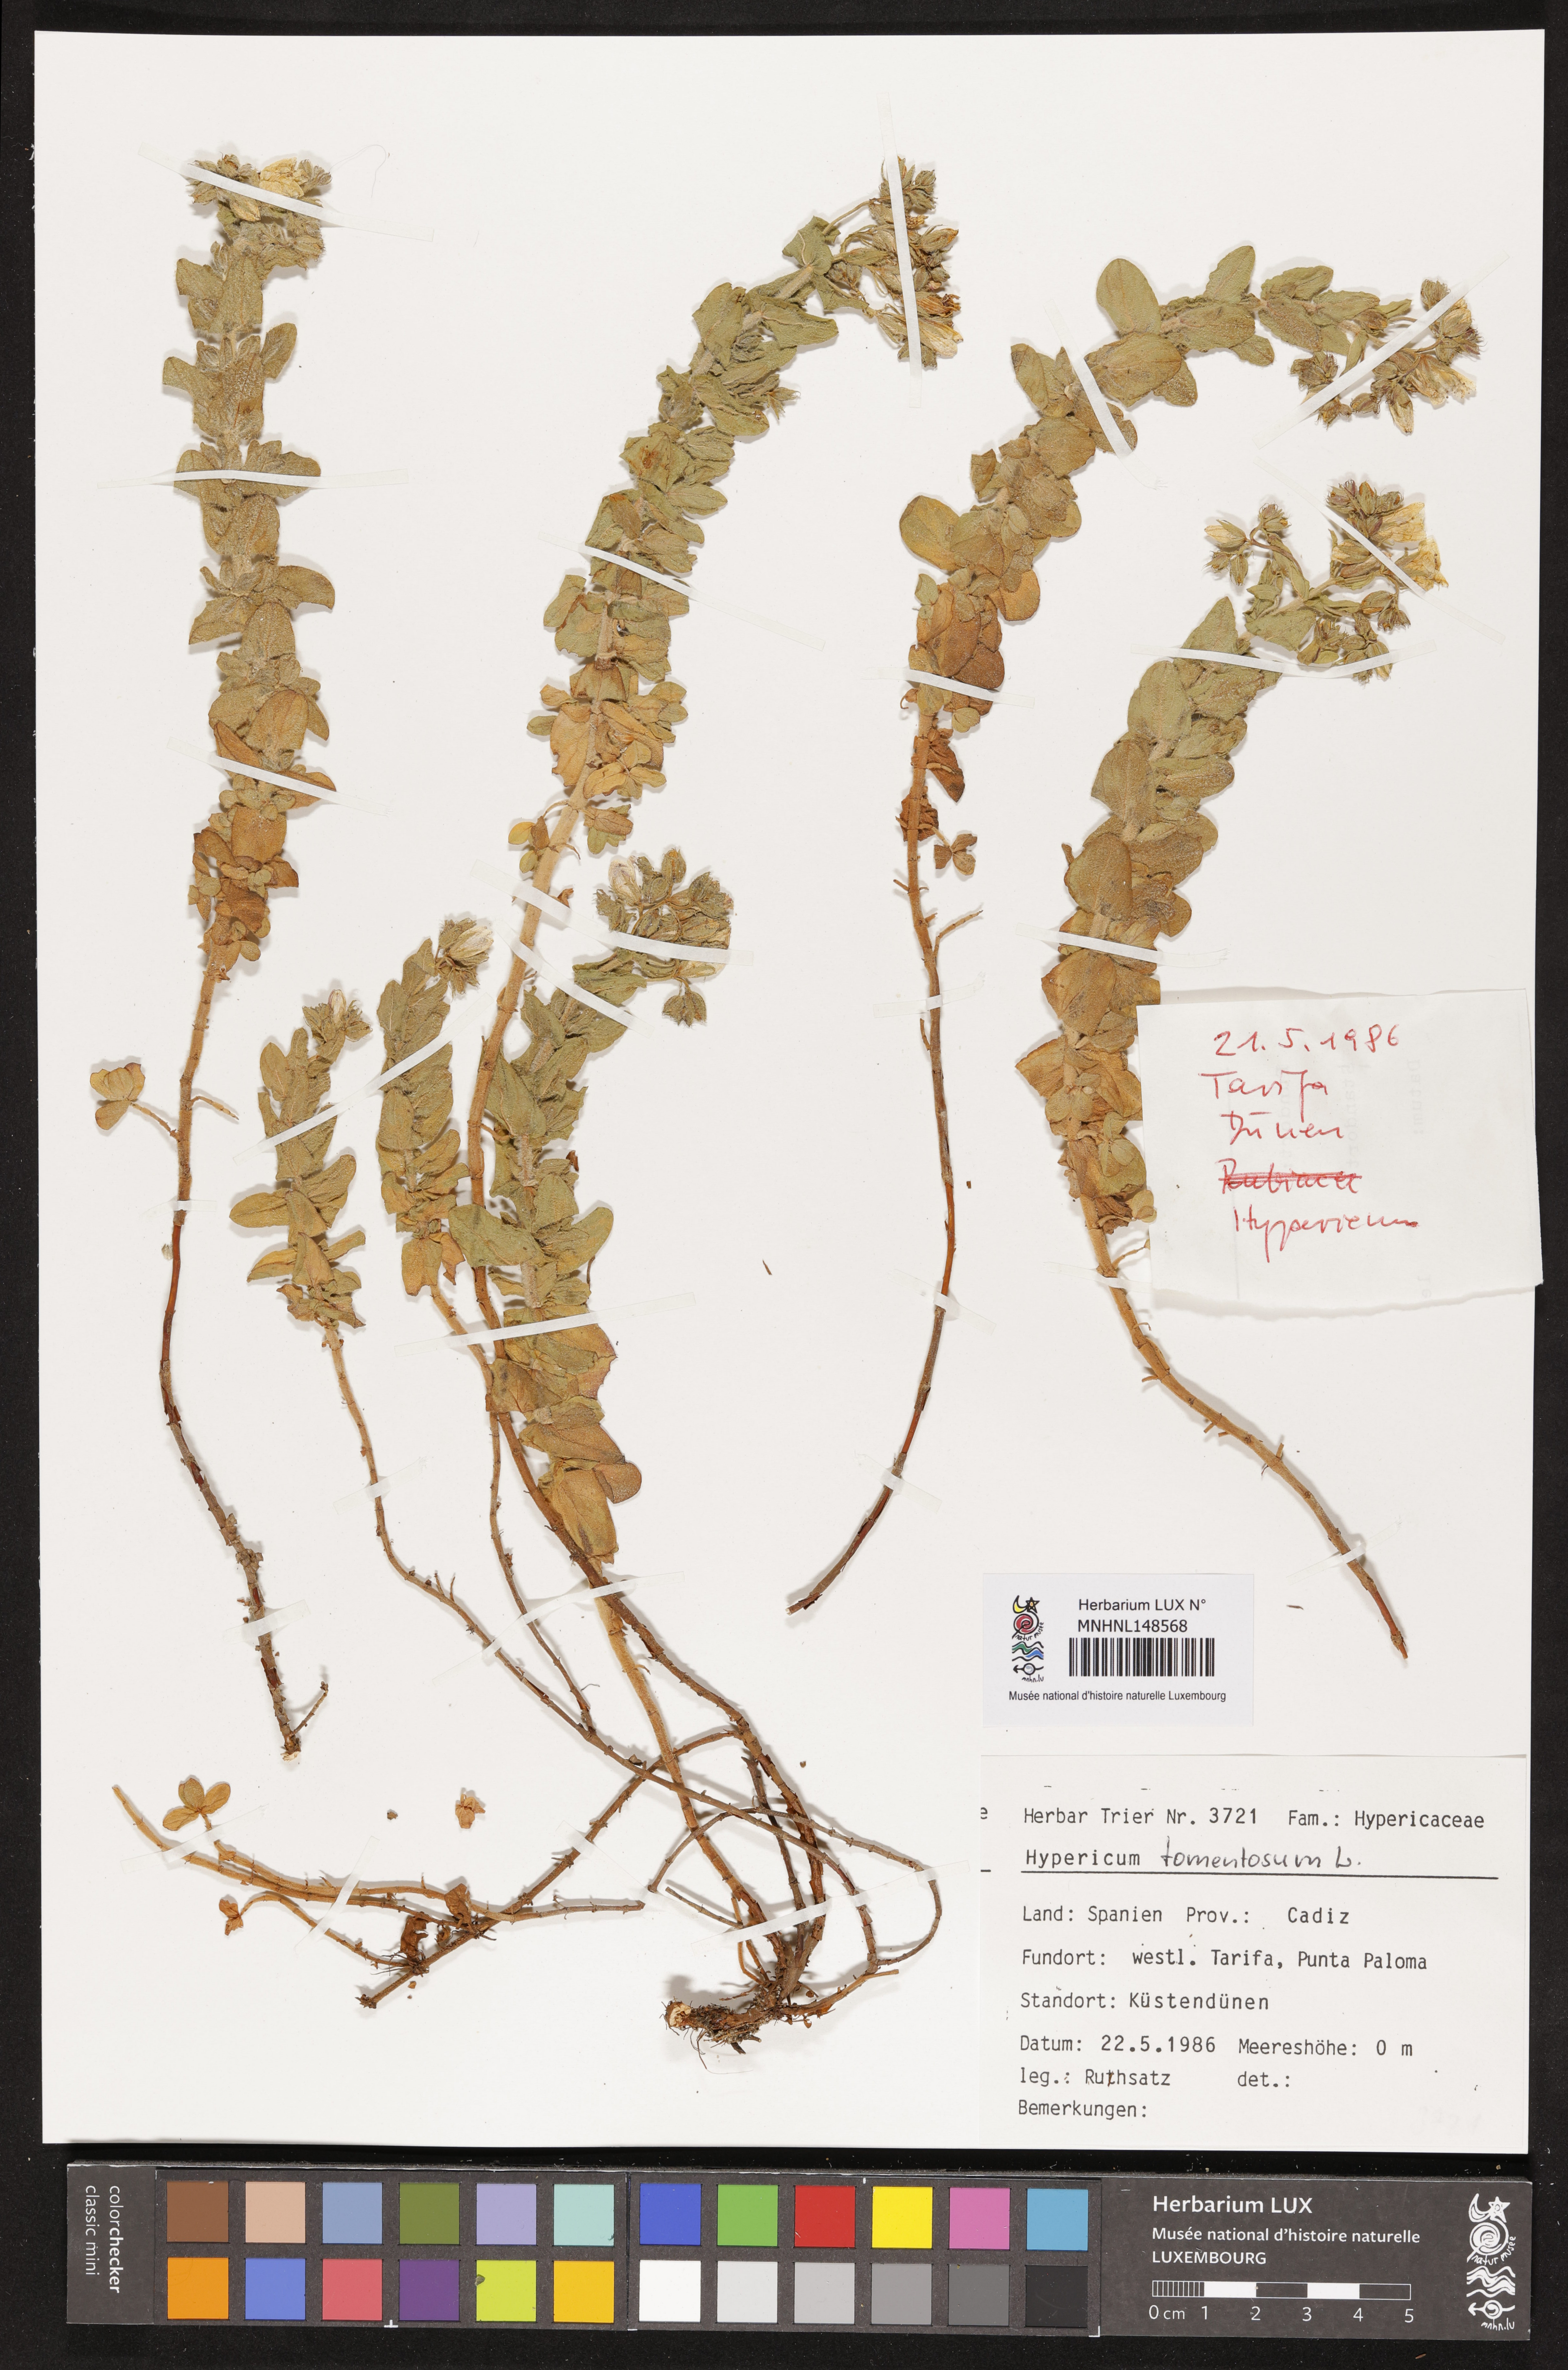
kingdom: Plantae
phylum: Tracheophyta
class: Magnoliopsida
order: Malpighiales
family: Hypericaceae
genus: Hypericum
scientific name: Hypericum tomentosum
